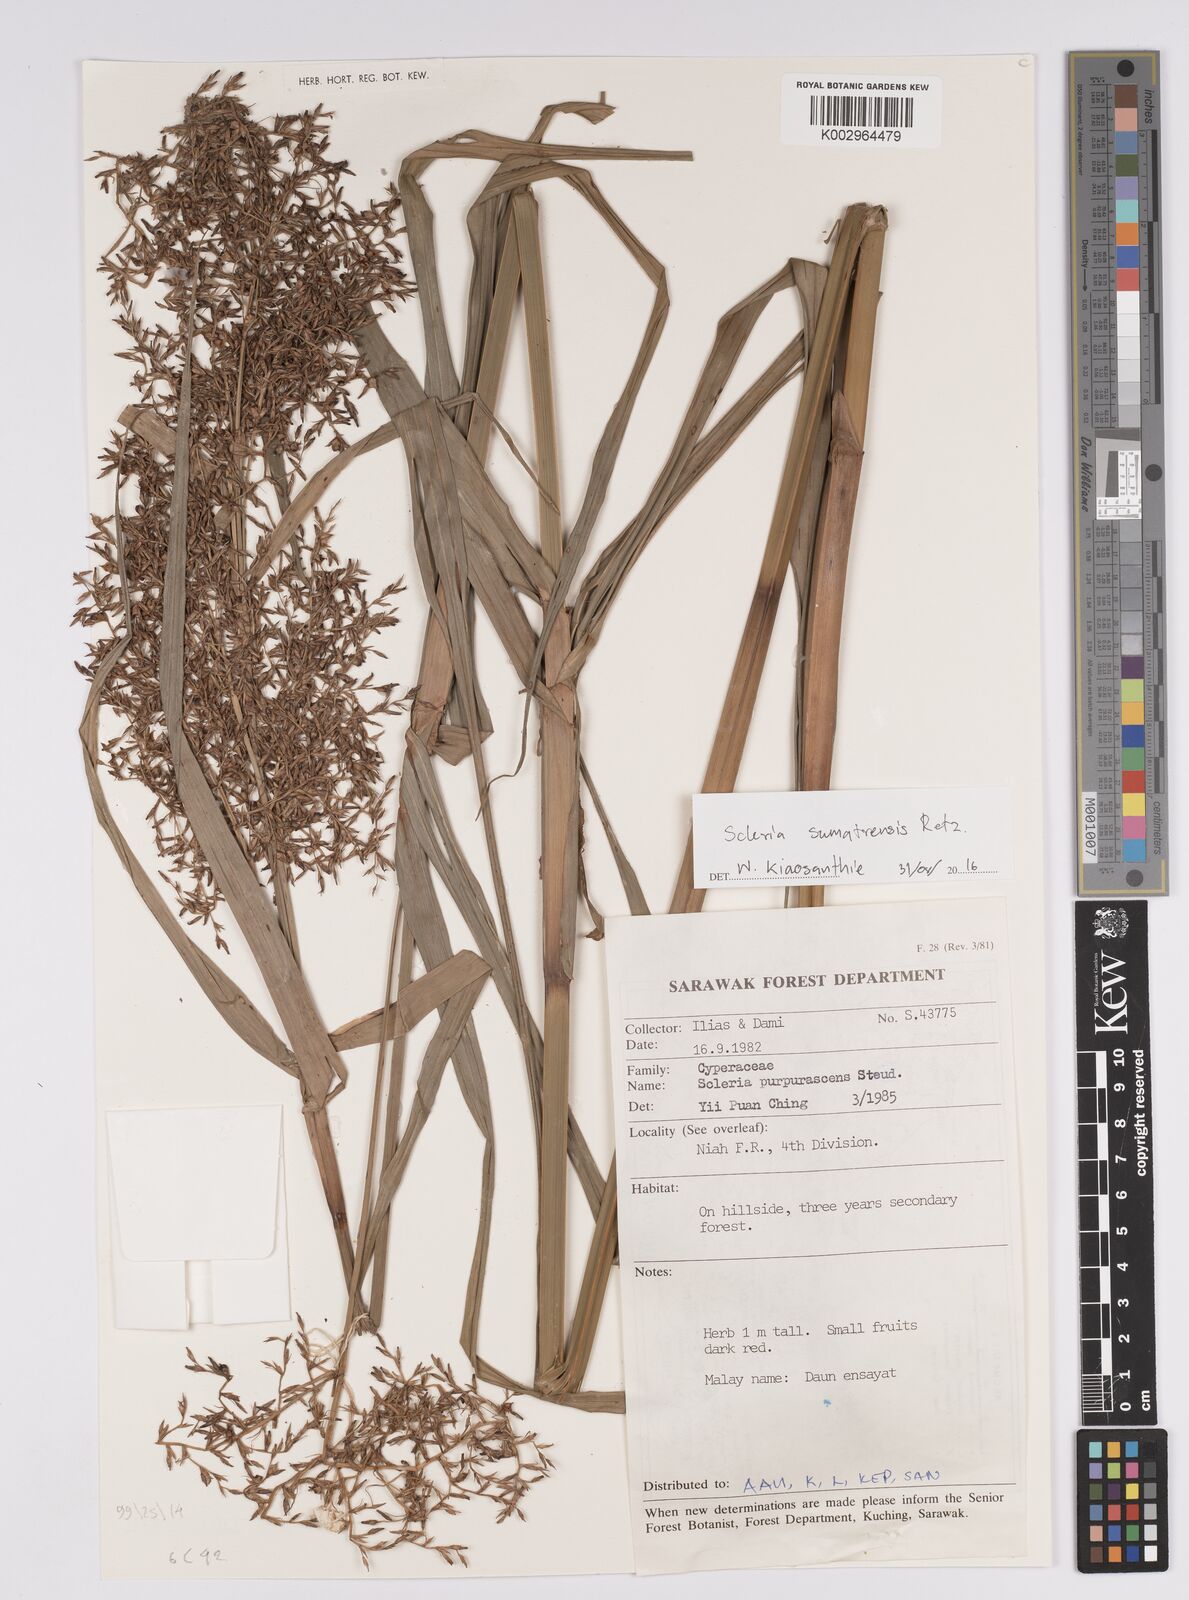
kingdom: Plantae
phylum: Tracheophyta
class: Liliopsida
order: Poales
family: Cyperaceae
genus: Scleria
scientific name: Scleria sumatrensis
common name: Sumatran scleria
